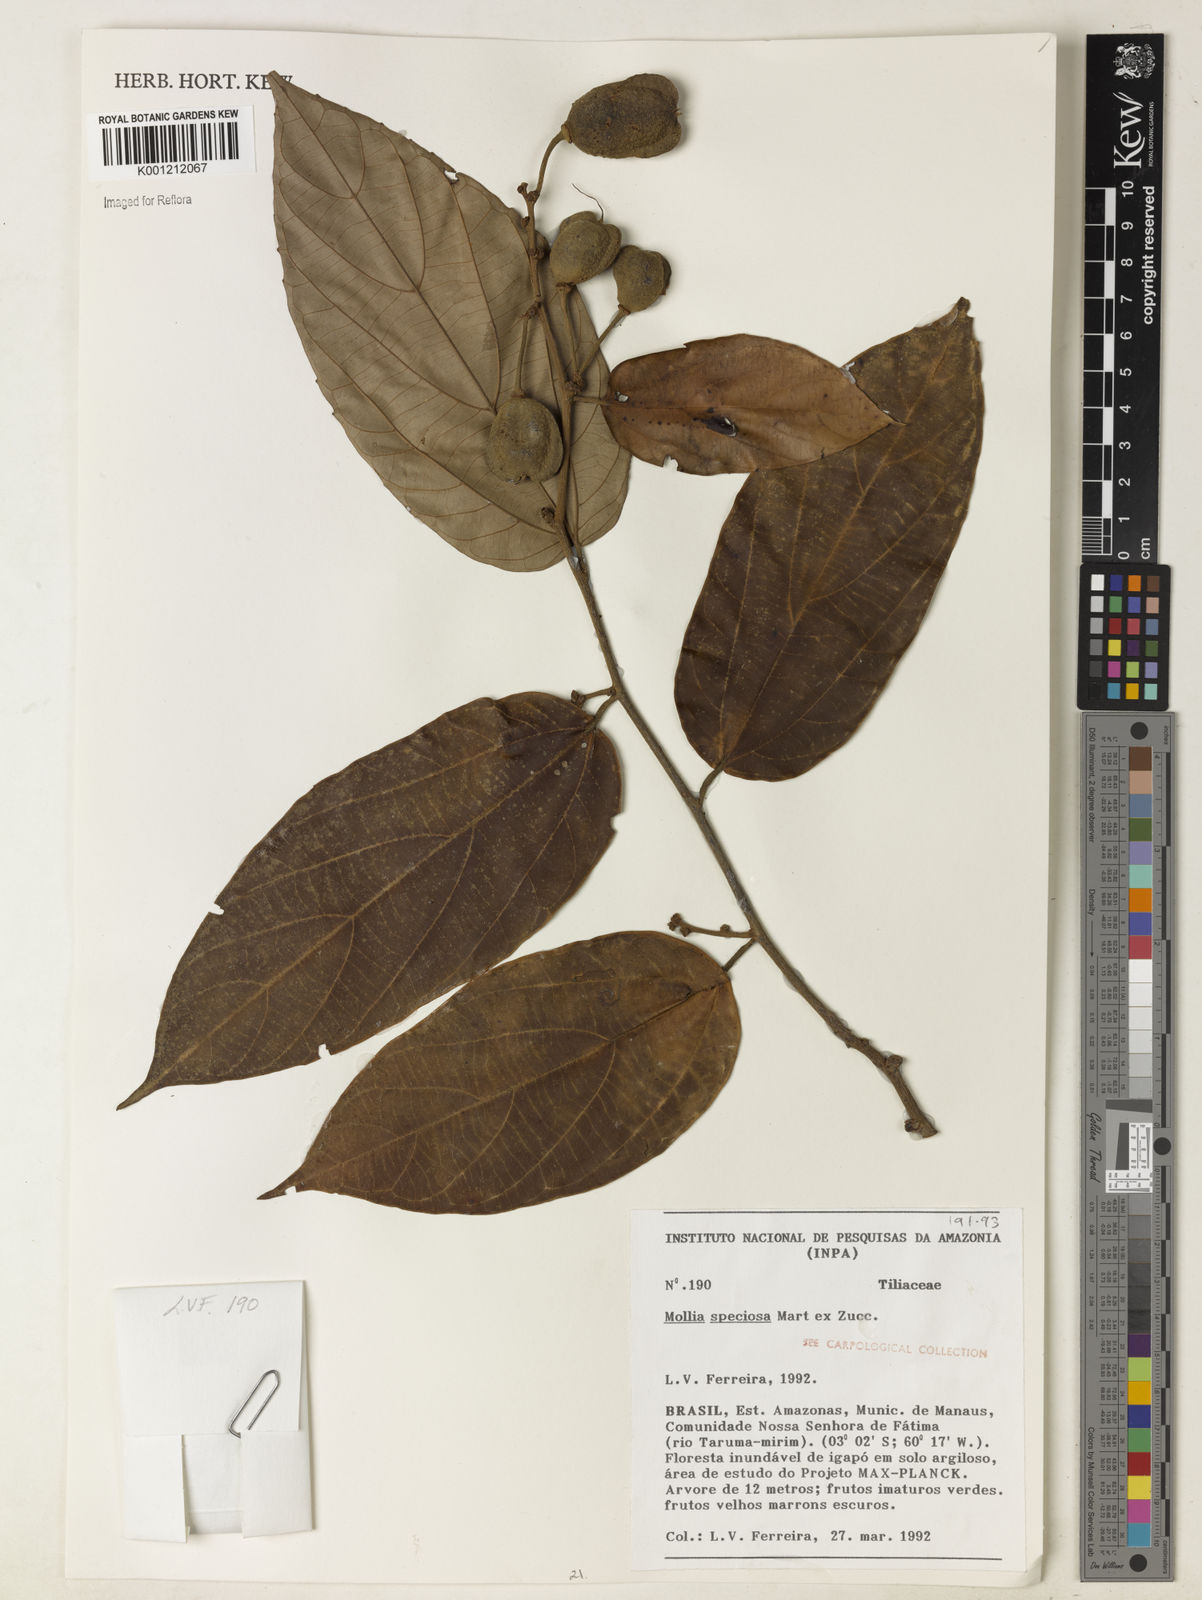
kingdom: Plantae
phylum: Tracheophyta
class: Magnoliopsida
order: Malvales
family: Malvaceae
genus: Mollia
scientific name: Mollia speciosa
